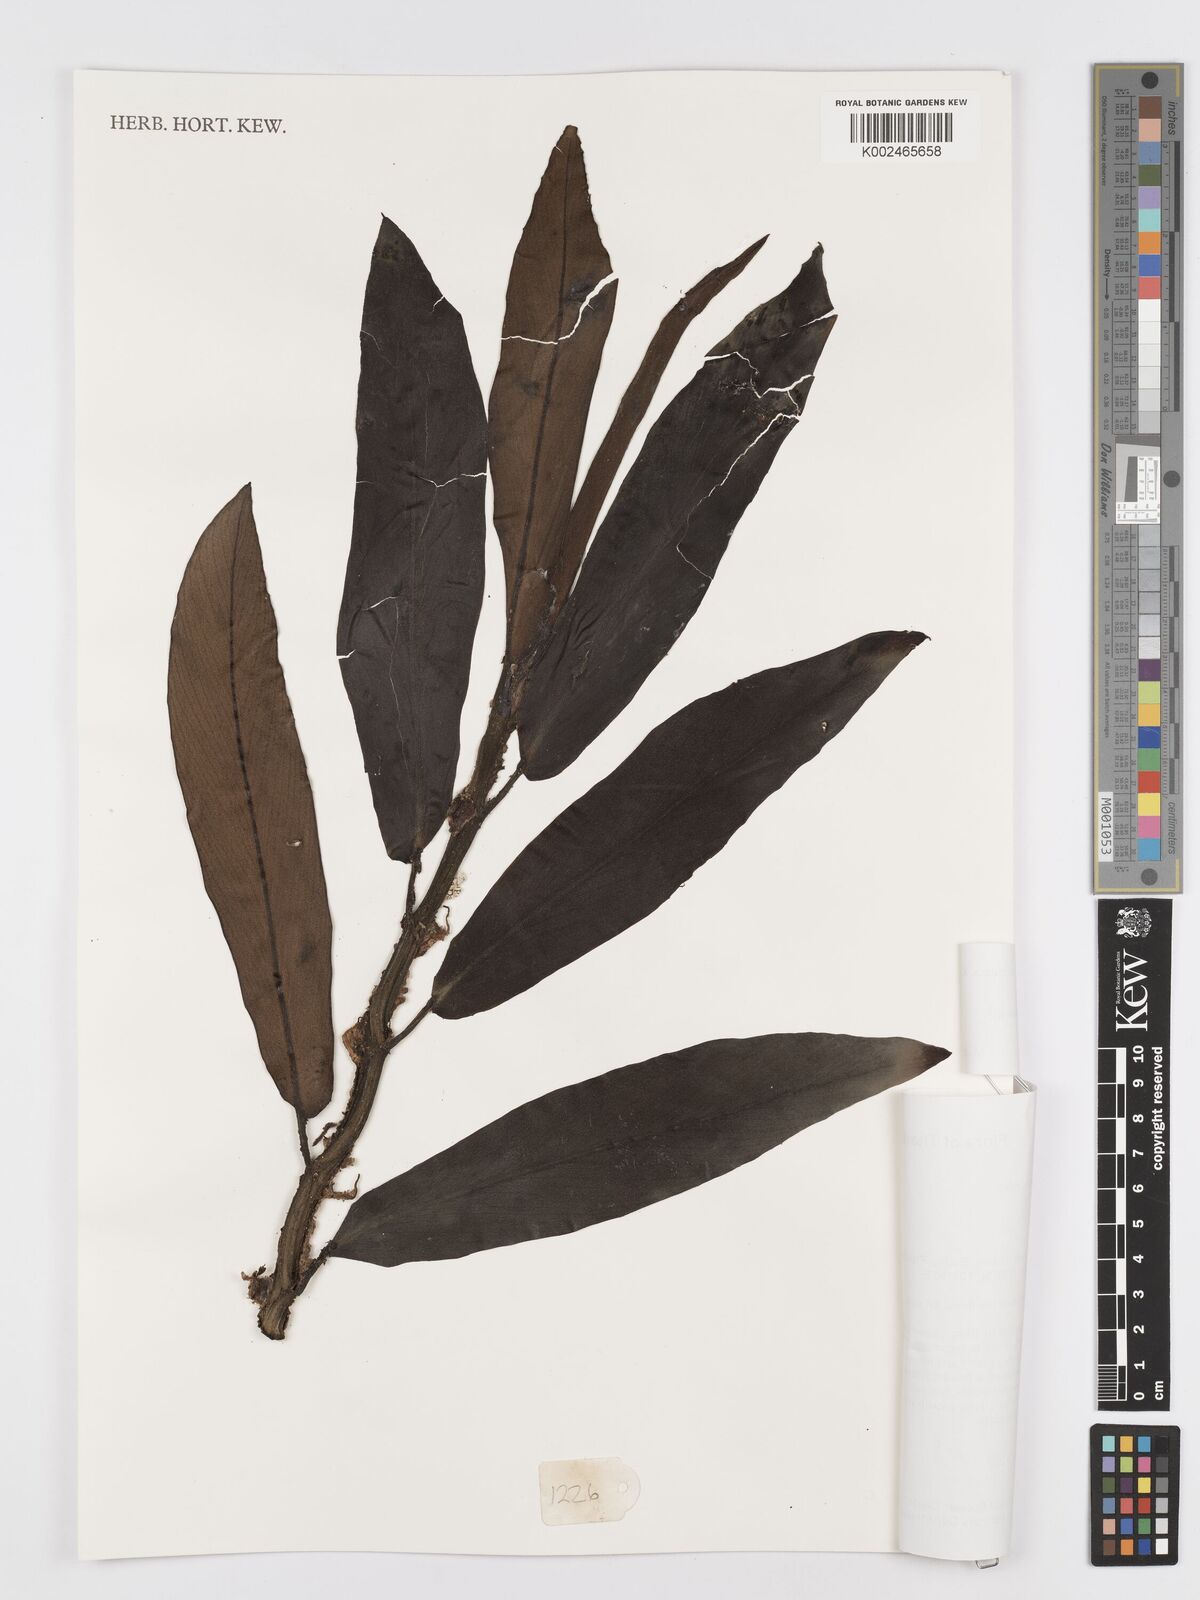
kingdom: Plantae
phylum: Tracheophyta
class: Liliopsida
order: Alismatales
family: Araceae
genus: Rhaphidophora
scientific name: Rhaphidophora crassifolia
